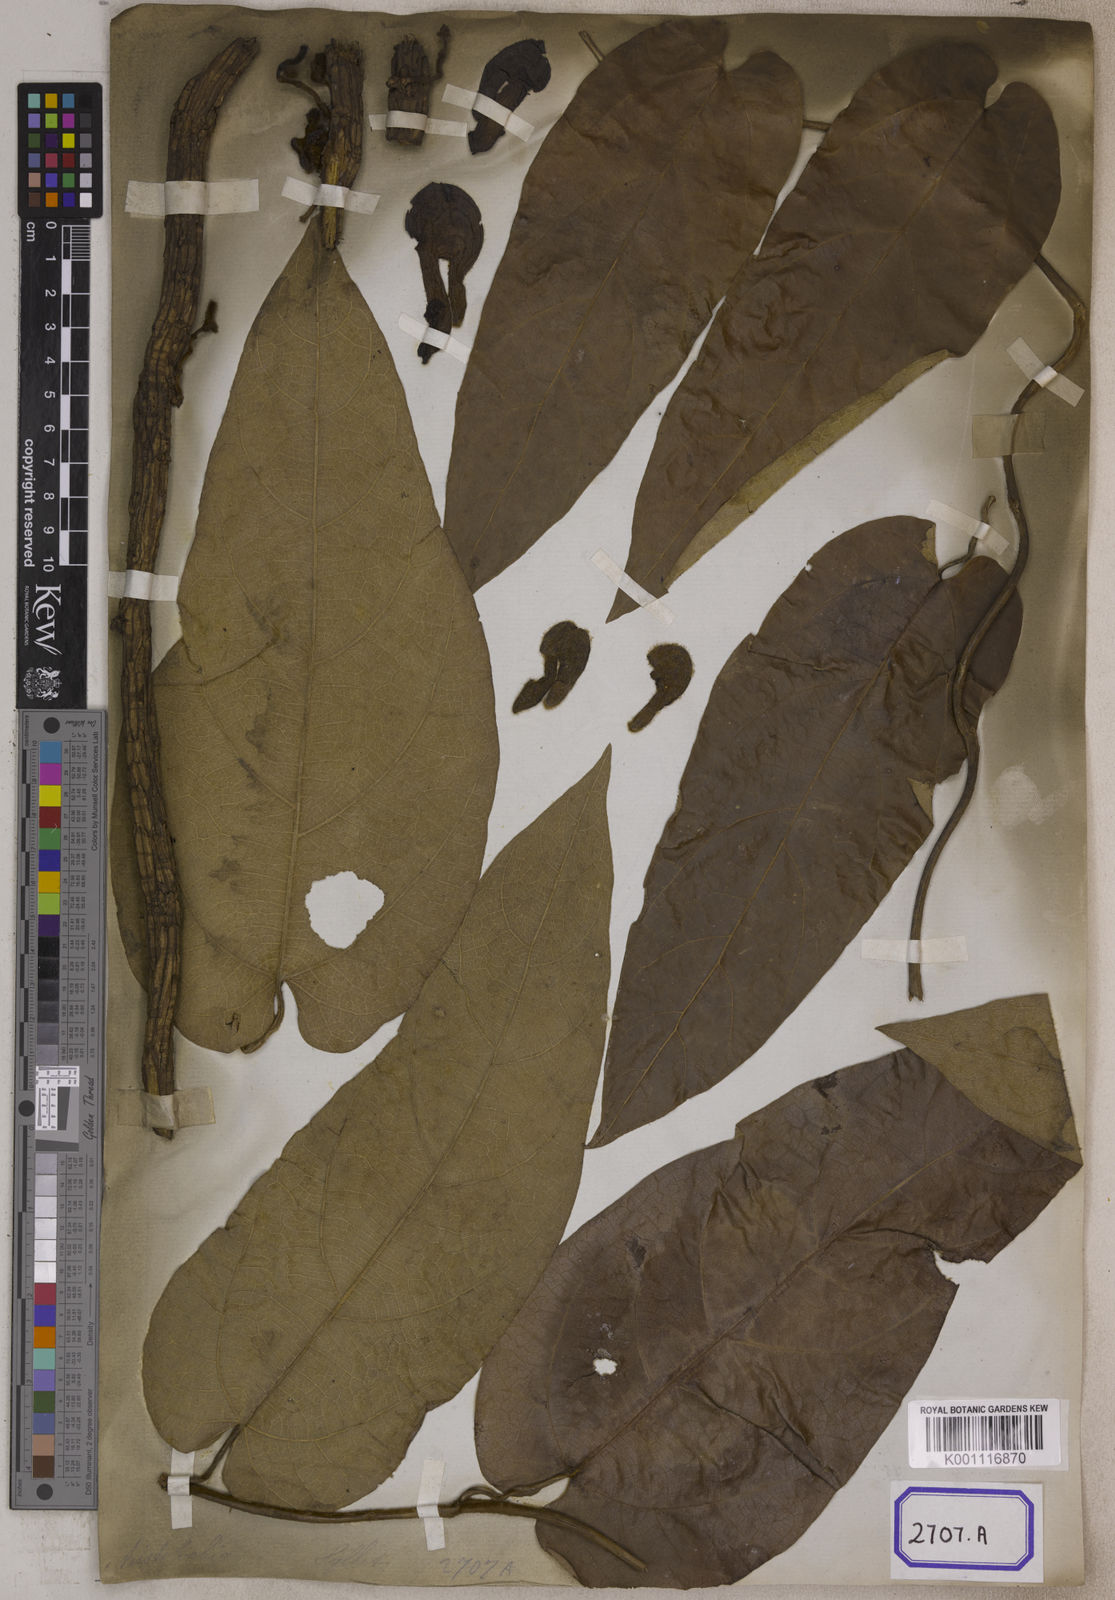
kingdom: Plantae
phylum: Tracheophyta
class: Magnoliopsida
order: Piperales
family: Aristolochiaceae
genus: Isotrema
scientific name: Isotrema saccatum
